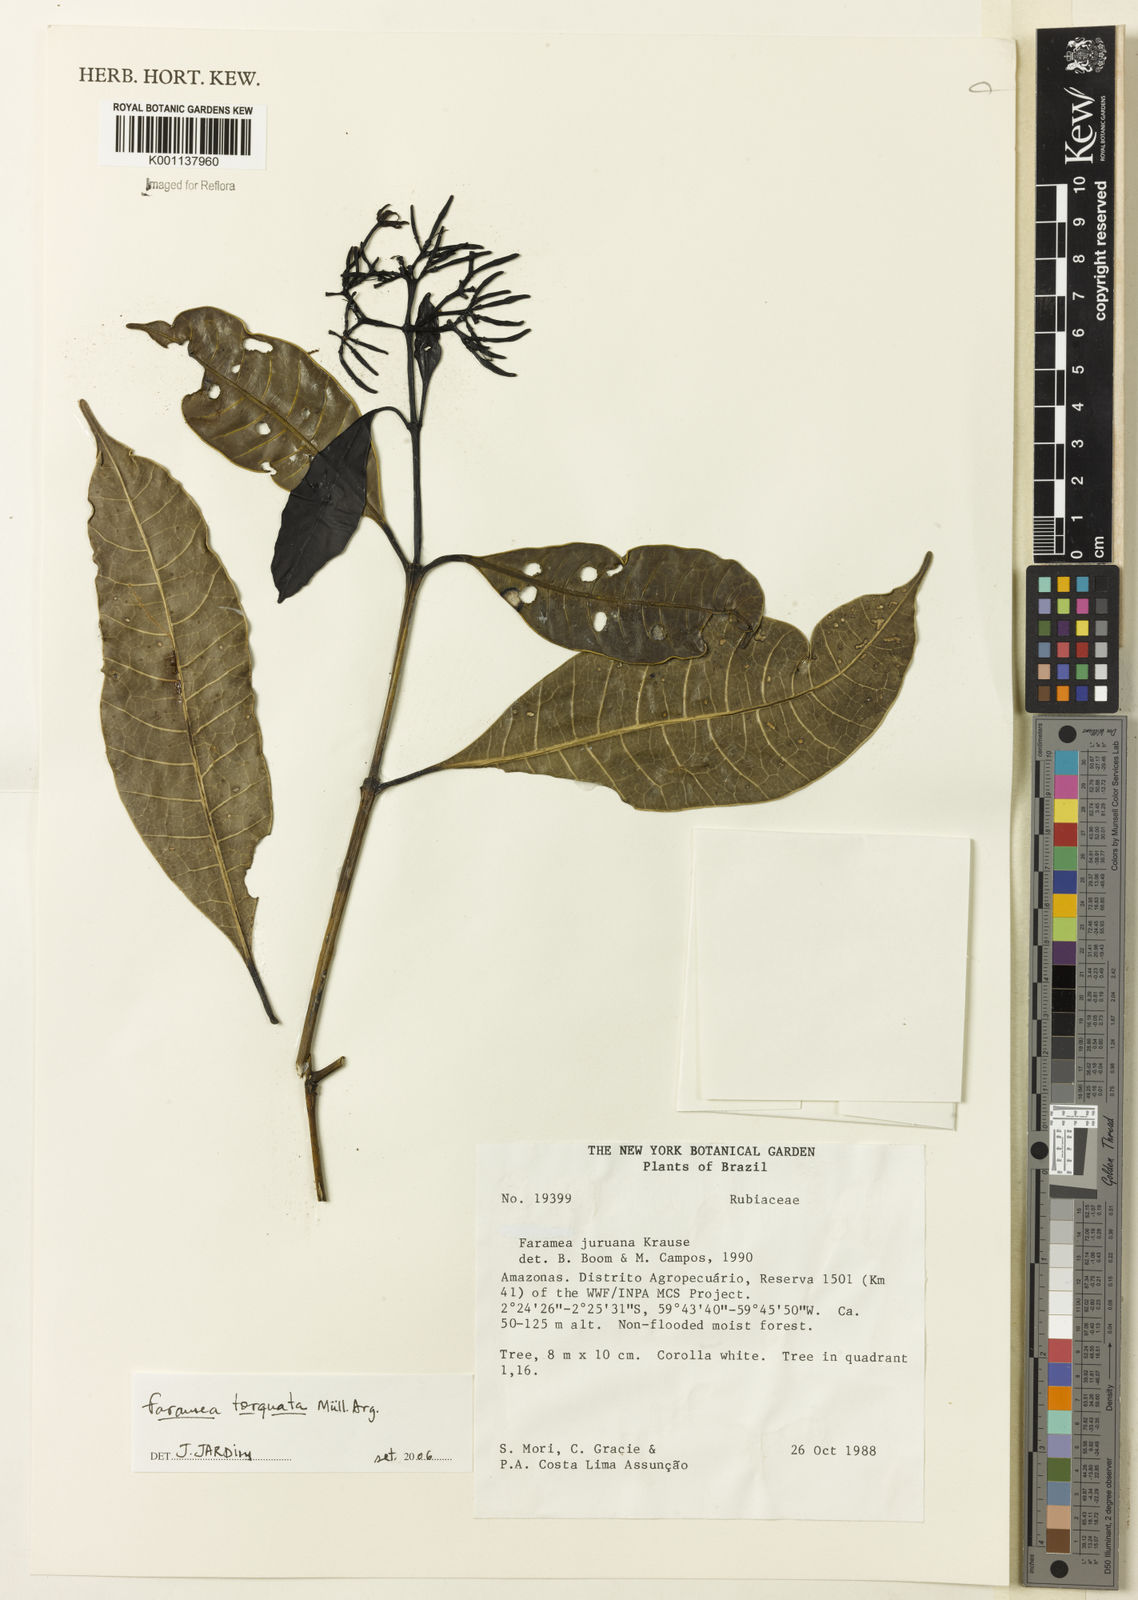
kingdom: Plantae
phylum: Tracheophyta
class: Magnoliopsida
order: Gentianales
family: Rubiaceae
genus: Faramea
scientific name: Faramea
